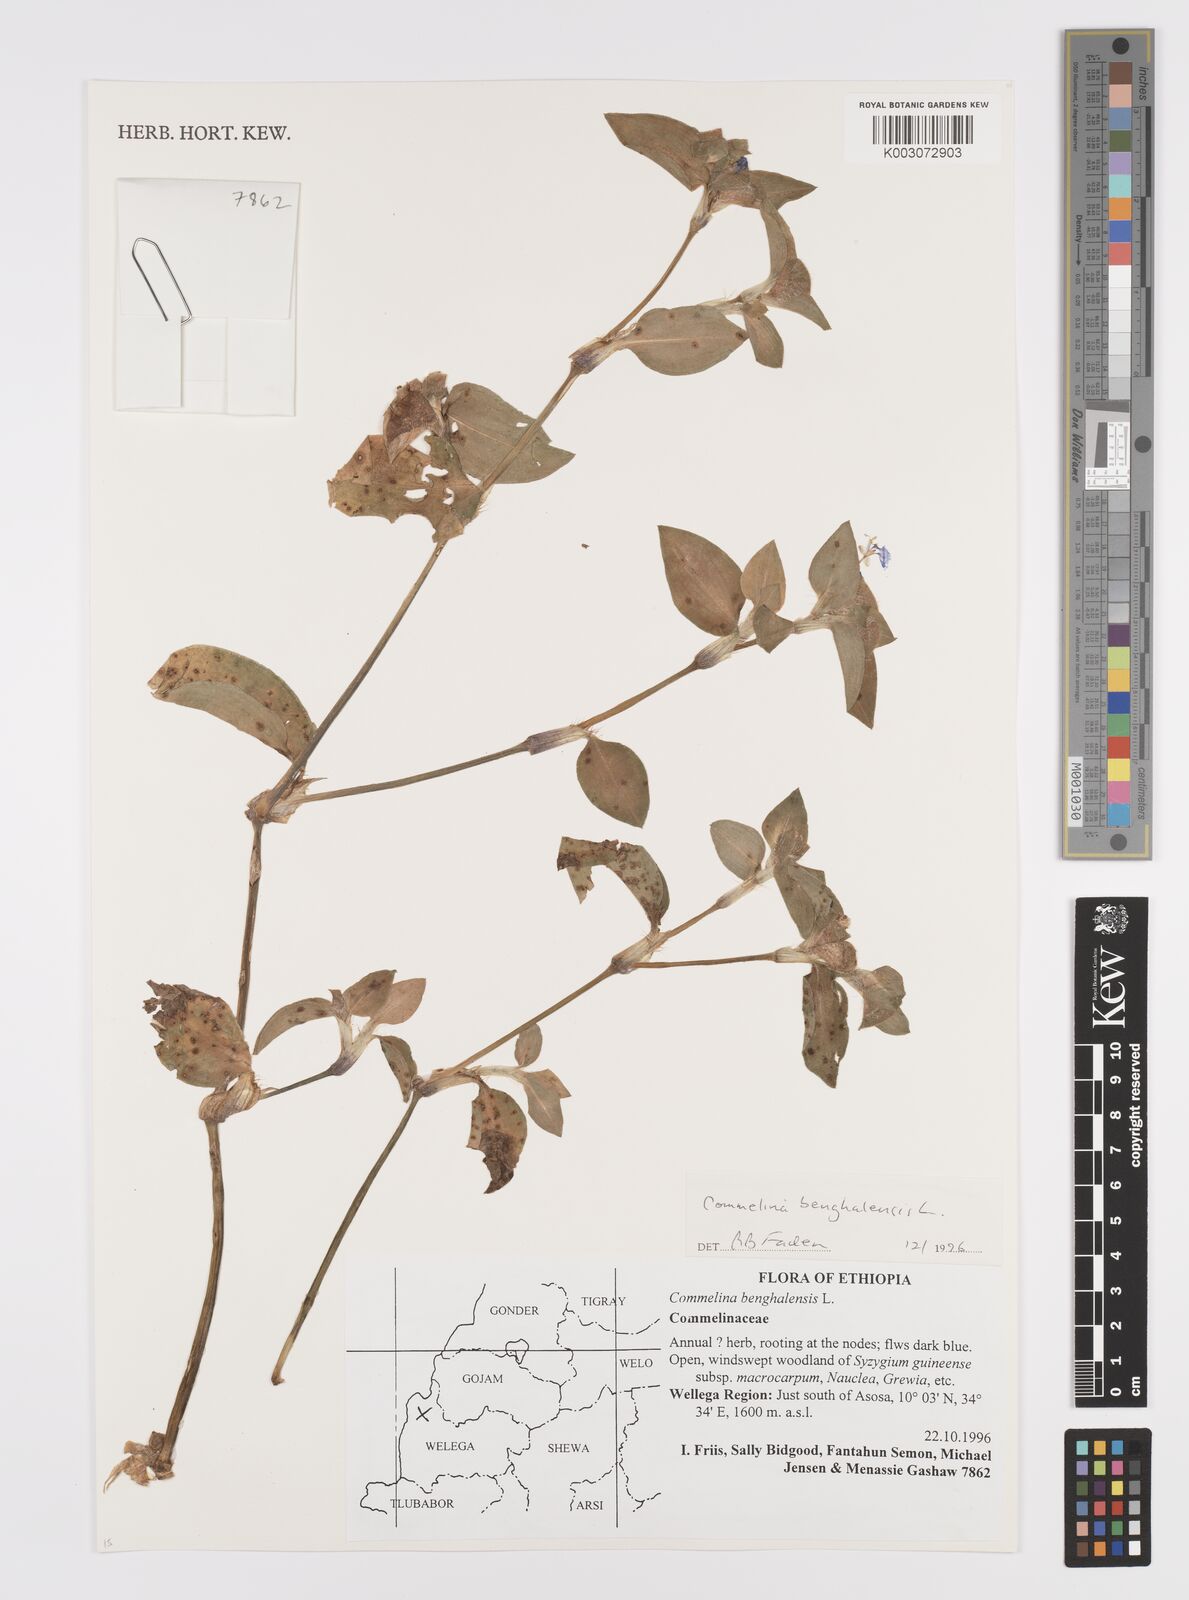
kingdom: Plantae
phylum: Tracheophyta
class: Liliopsida
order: Commelinales
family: Commelinaceae
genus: Commelina
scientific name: Commelina benghalensis
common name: Jio
